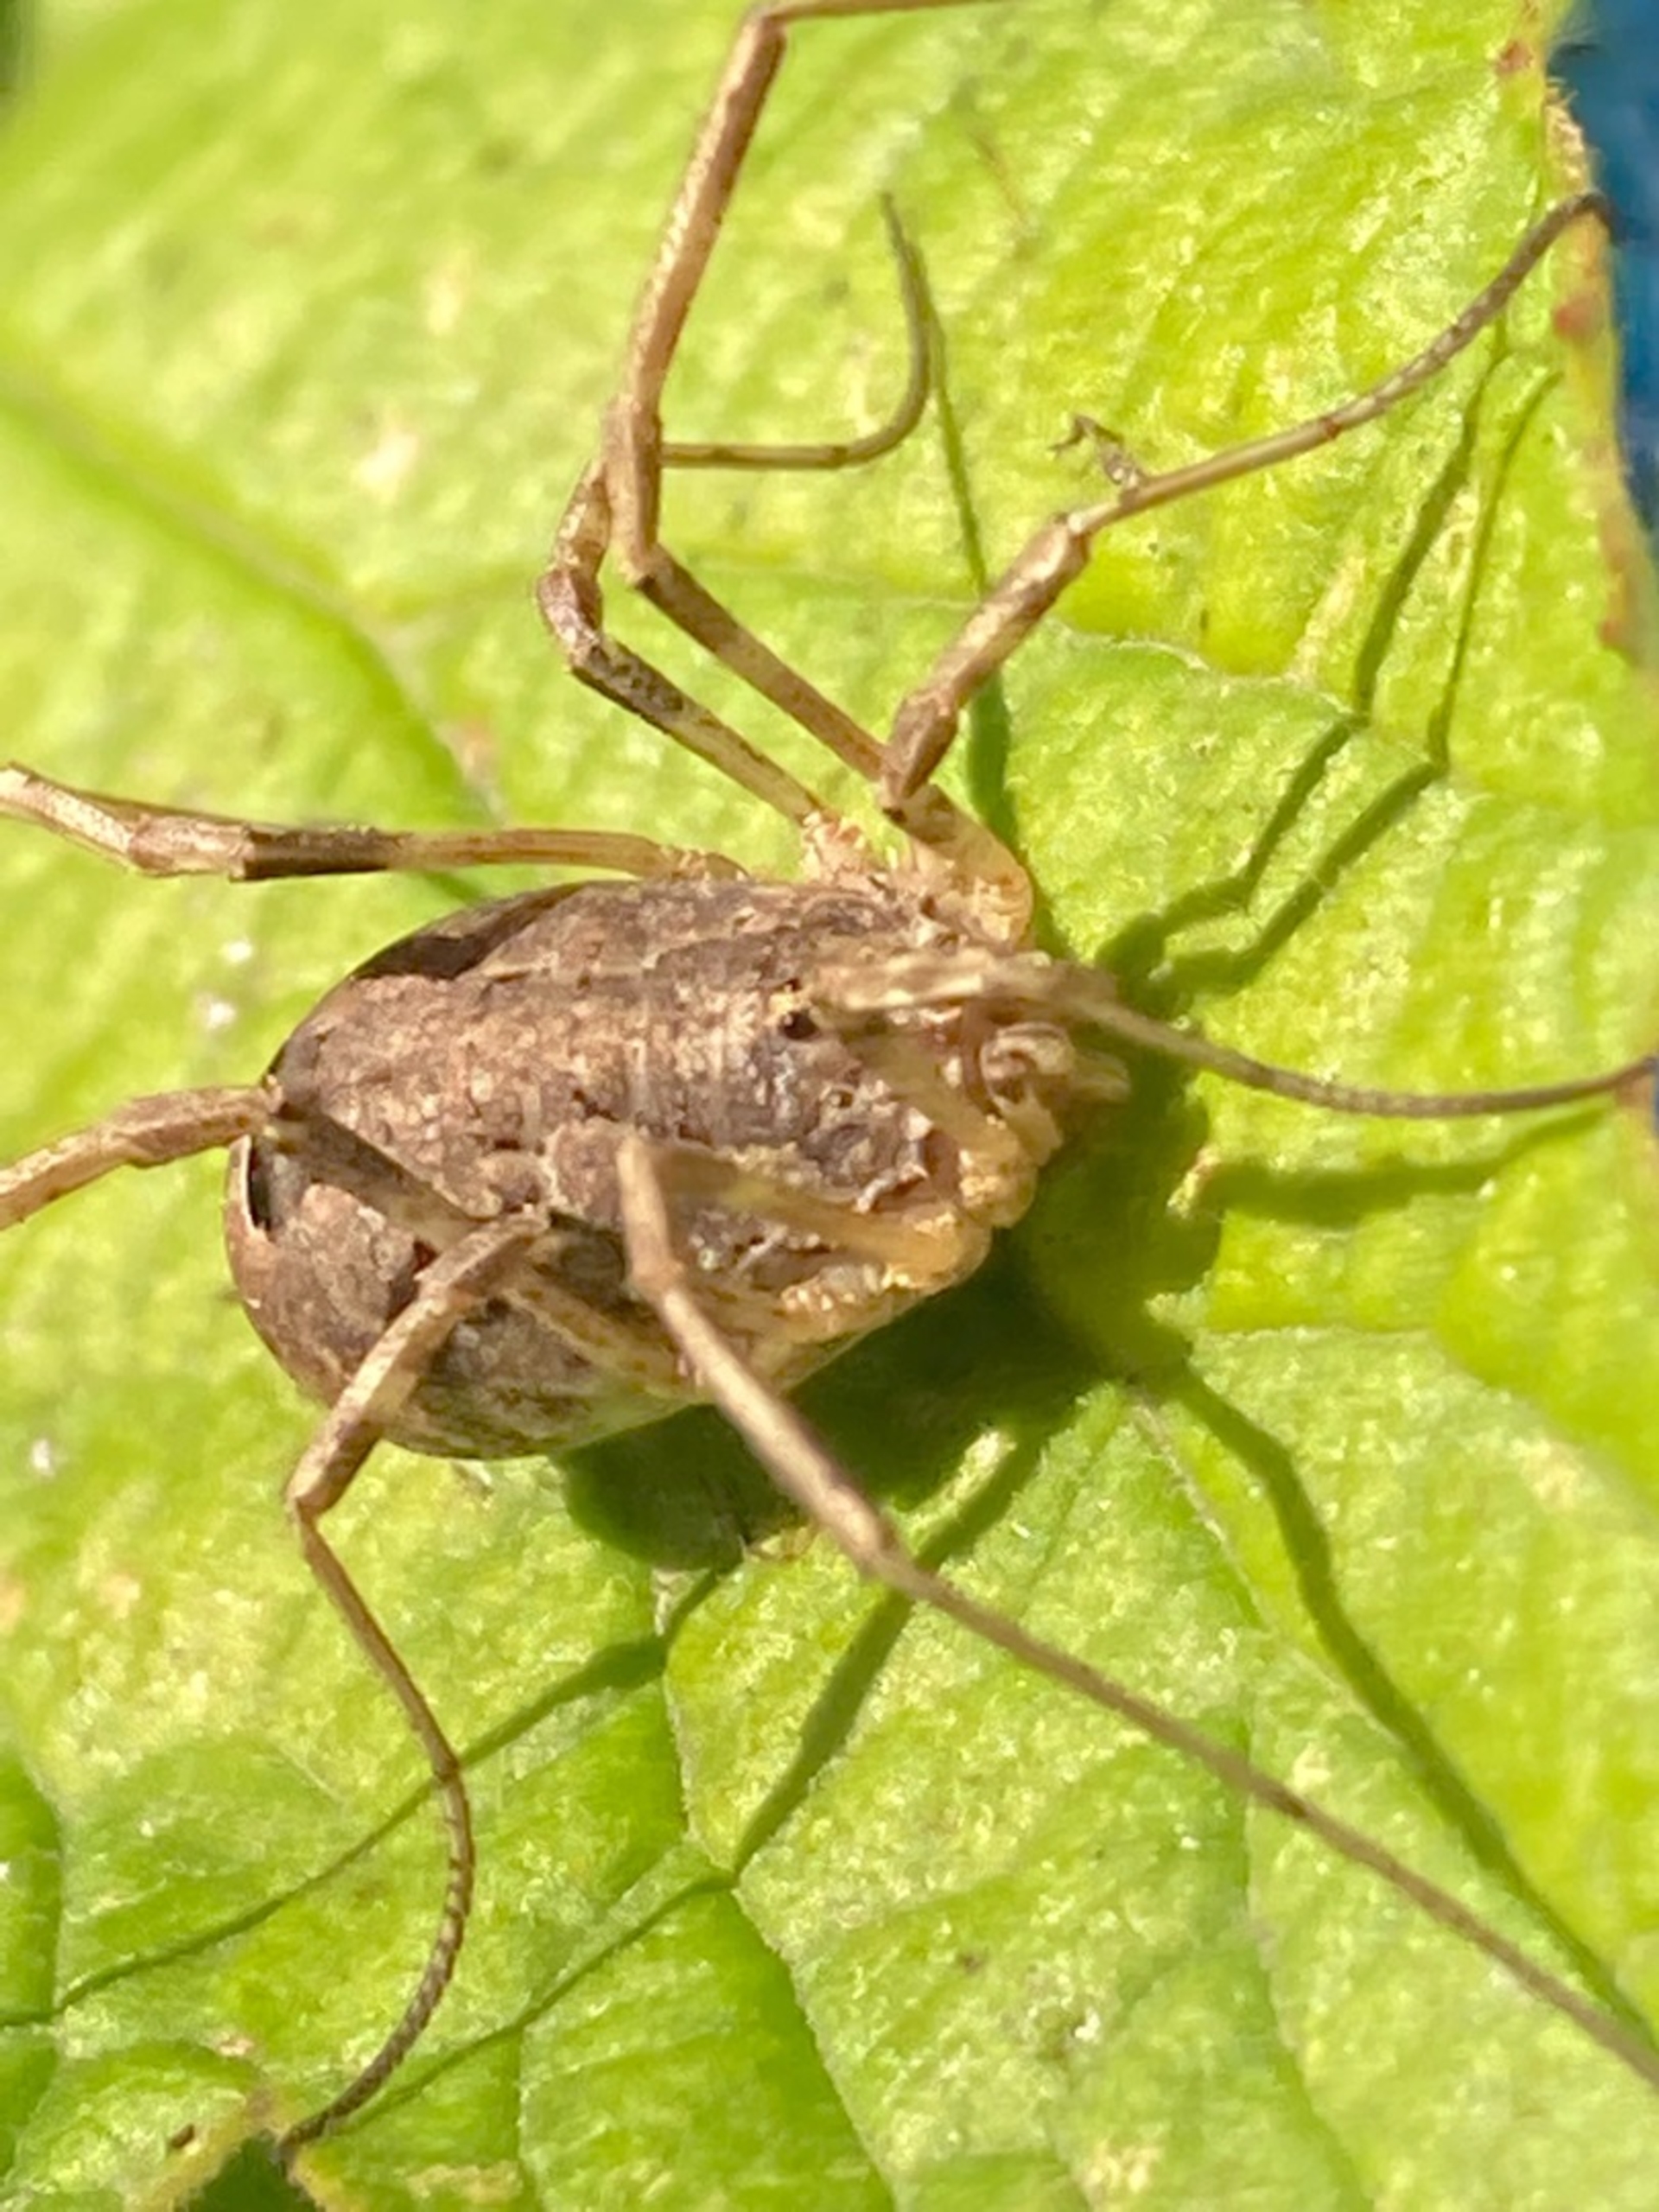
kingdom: Animalia
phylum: Arthropoda
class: Arachnida
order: Opiliones
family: Phalangiidae
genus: Odiellus
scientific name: Odiellus spinosus
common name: Kæmpemejer
